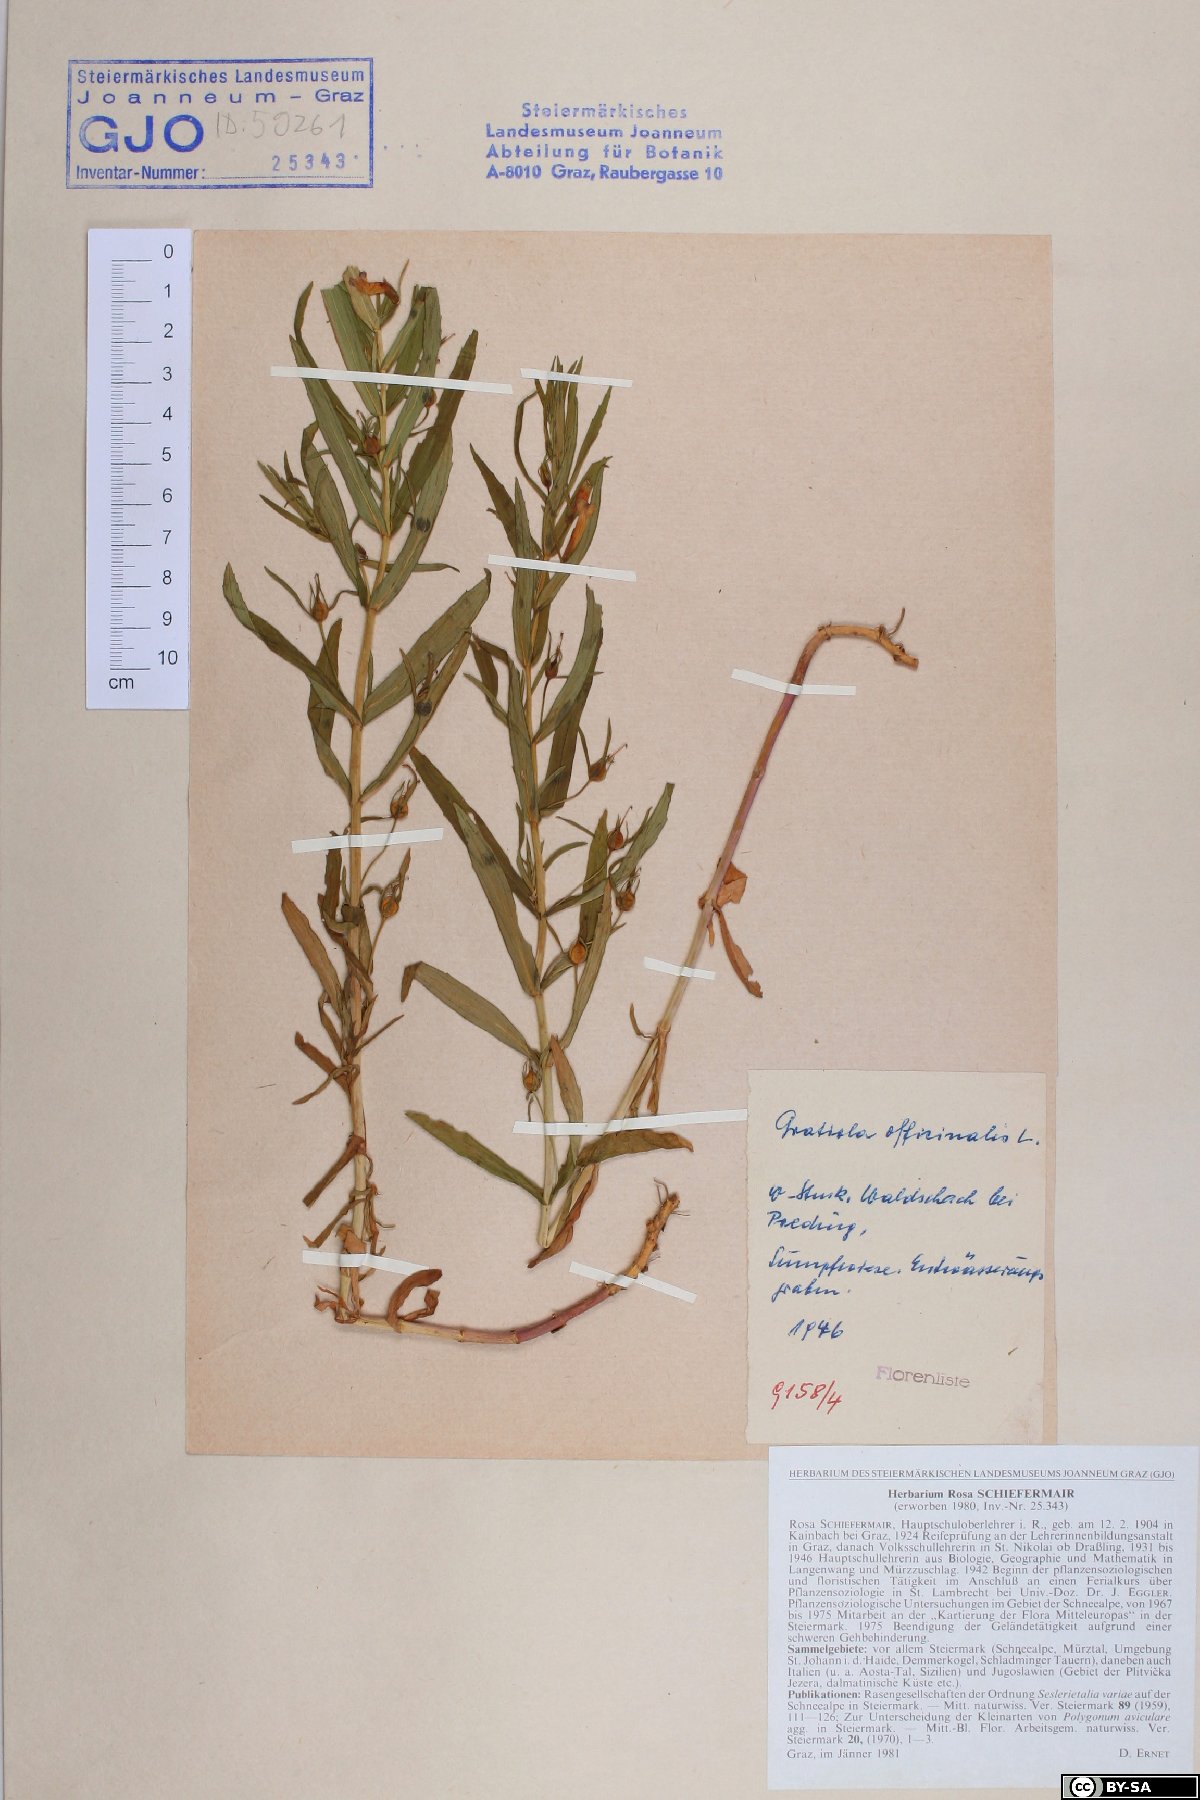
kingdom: Plantae
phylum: Tracheophyta
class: Magnoliopsida
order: Lamiales
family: Plantaginaceae
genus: Gratiola
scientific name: Gratiola officinalis
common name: Gratiola
